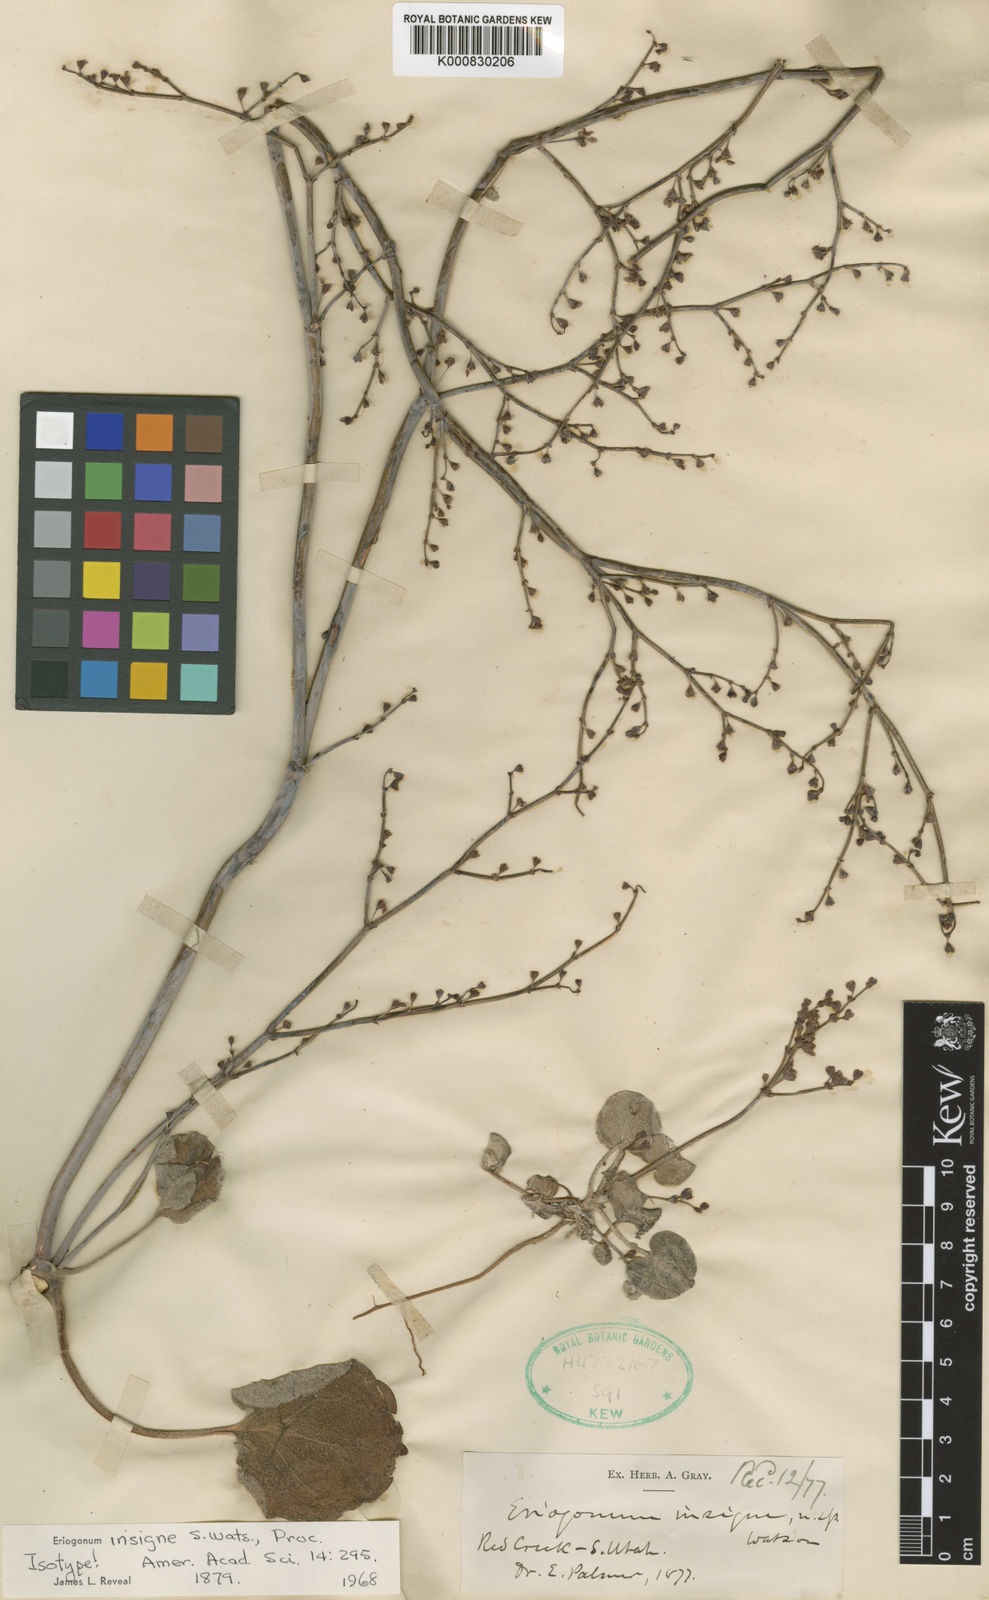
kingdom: Plantae
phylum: Tracheophyta
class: Magnoliopsida
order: Caryophyllales
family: Polygonaceae
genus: Eriogonum
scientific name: Eriogonum deflexum
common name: Skeleton-weed
